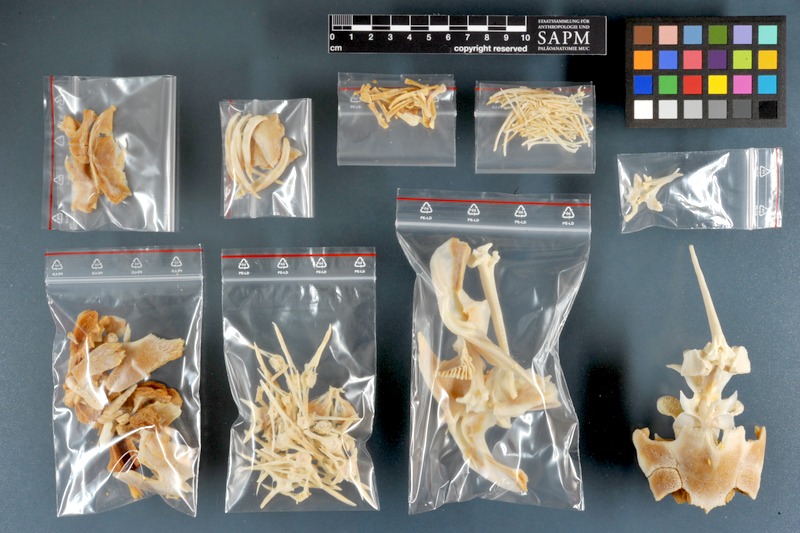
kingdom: Animalia
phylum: Chordata
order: Siluriformes
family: Mochokidae
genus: Synodontis
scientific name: Synodontis
